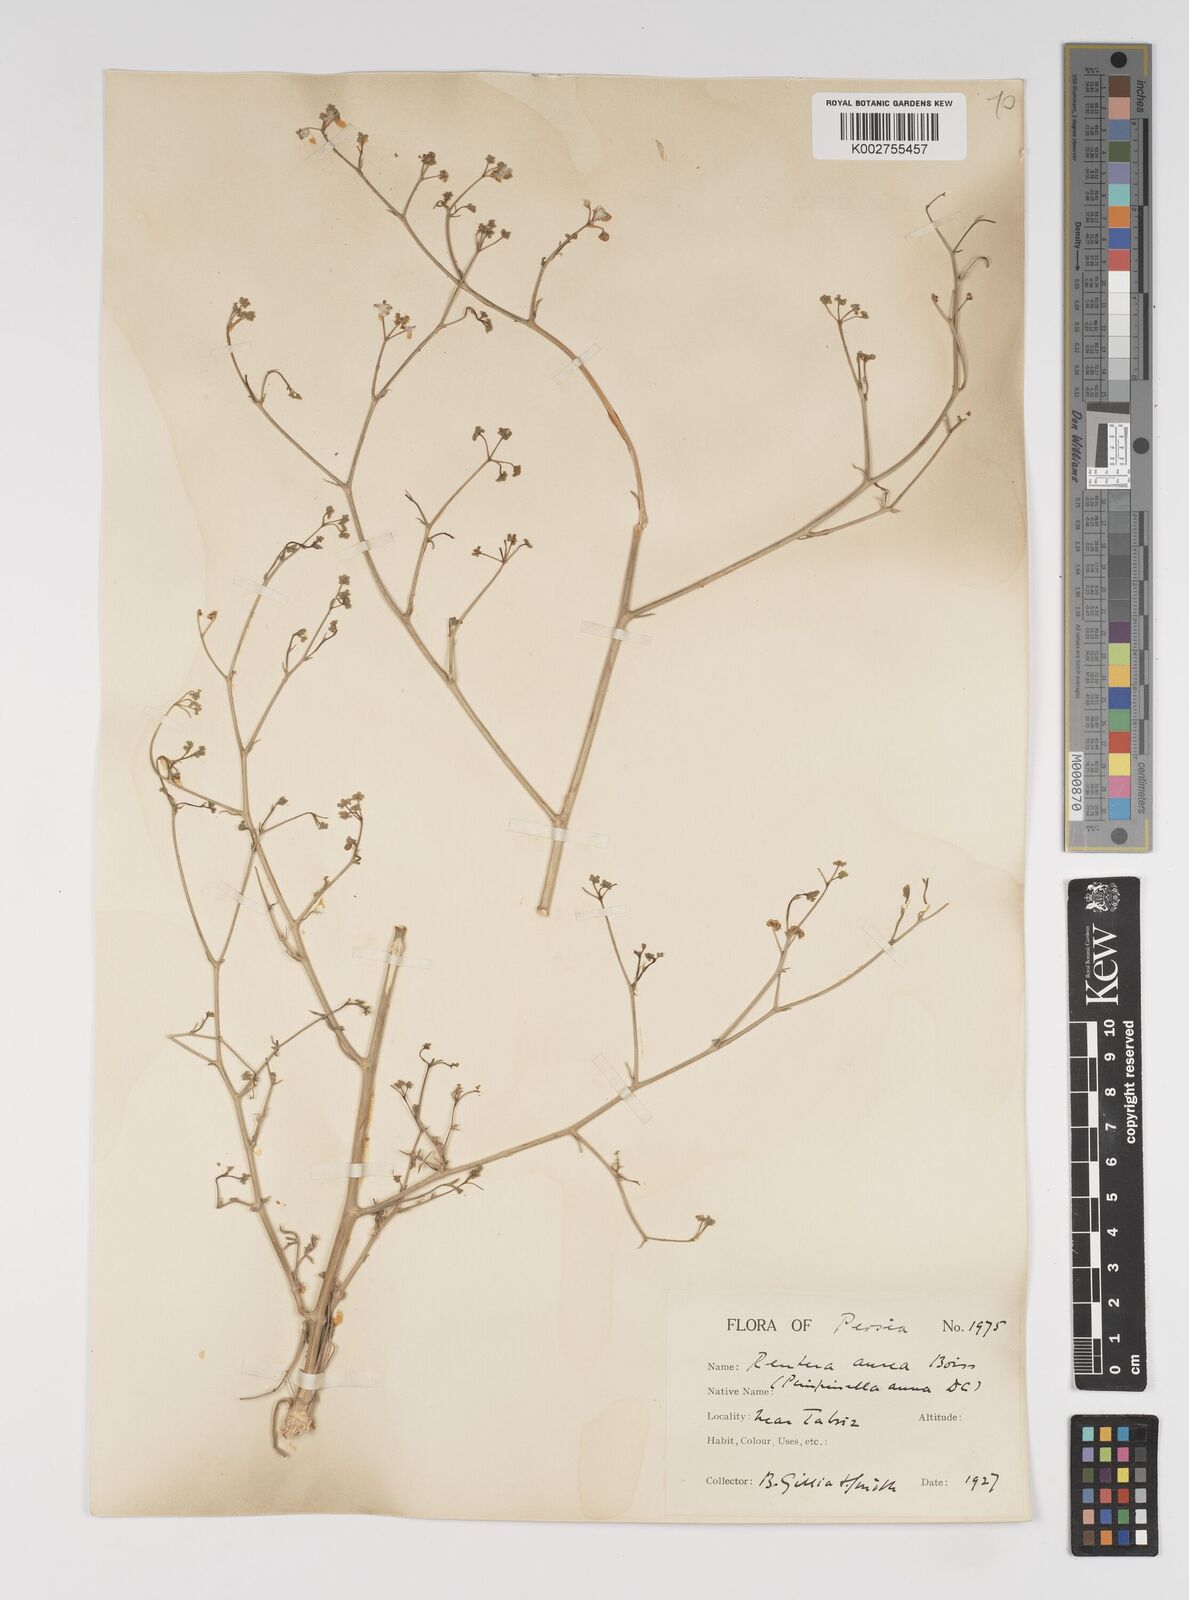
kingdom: Plantae
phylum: Tracheophyta
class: Magnoliopsida
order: Apiales
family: Apiaceae
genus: Pimpinella
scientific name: Pimpinella aurea
